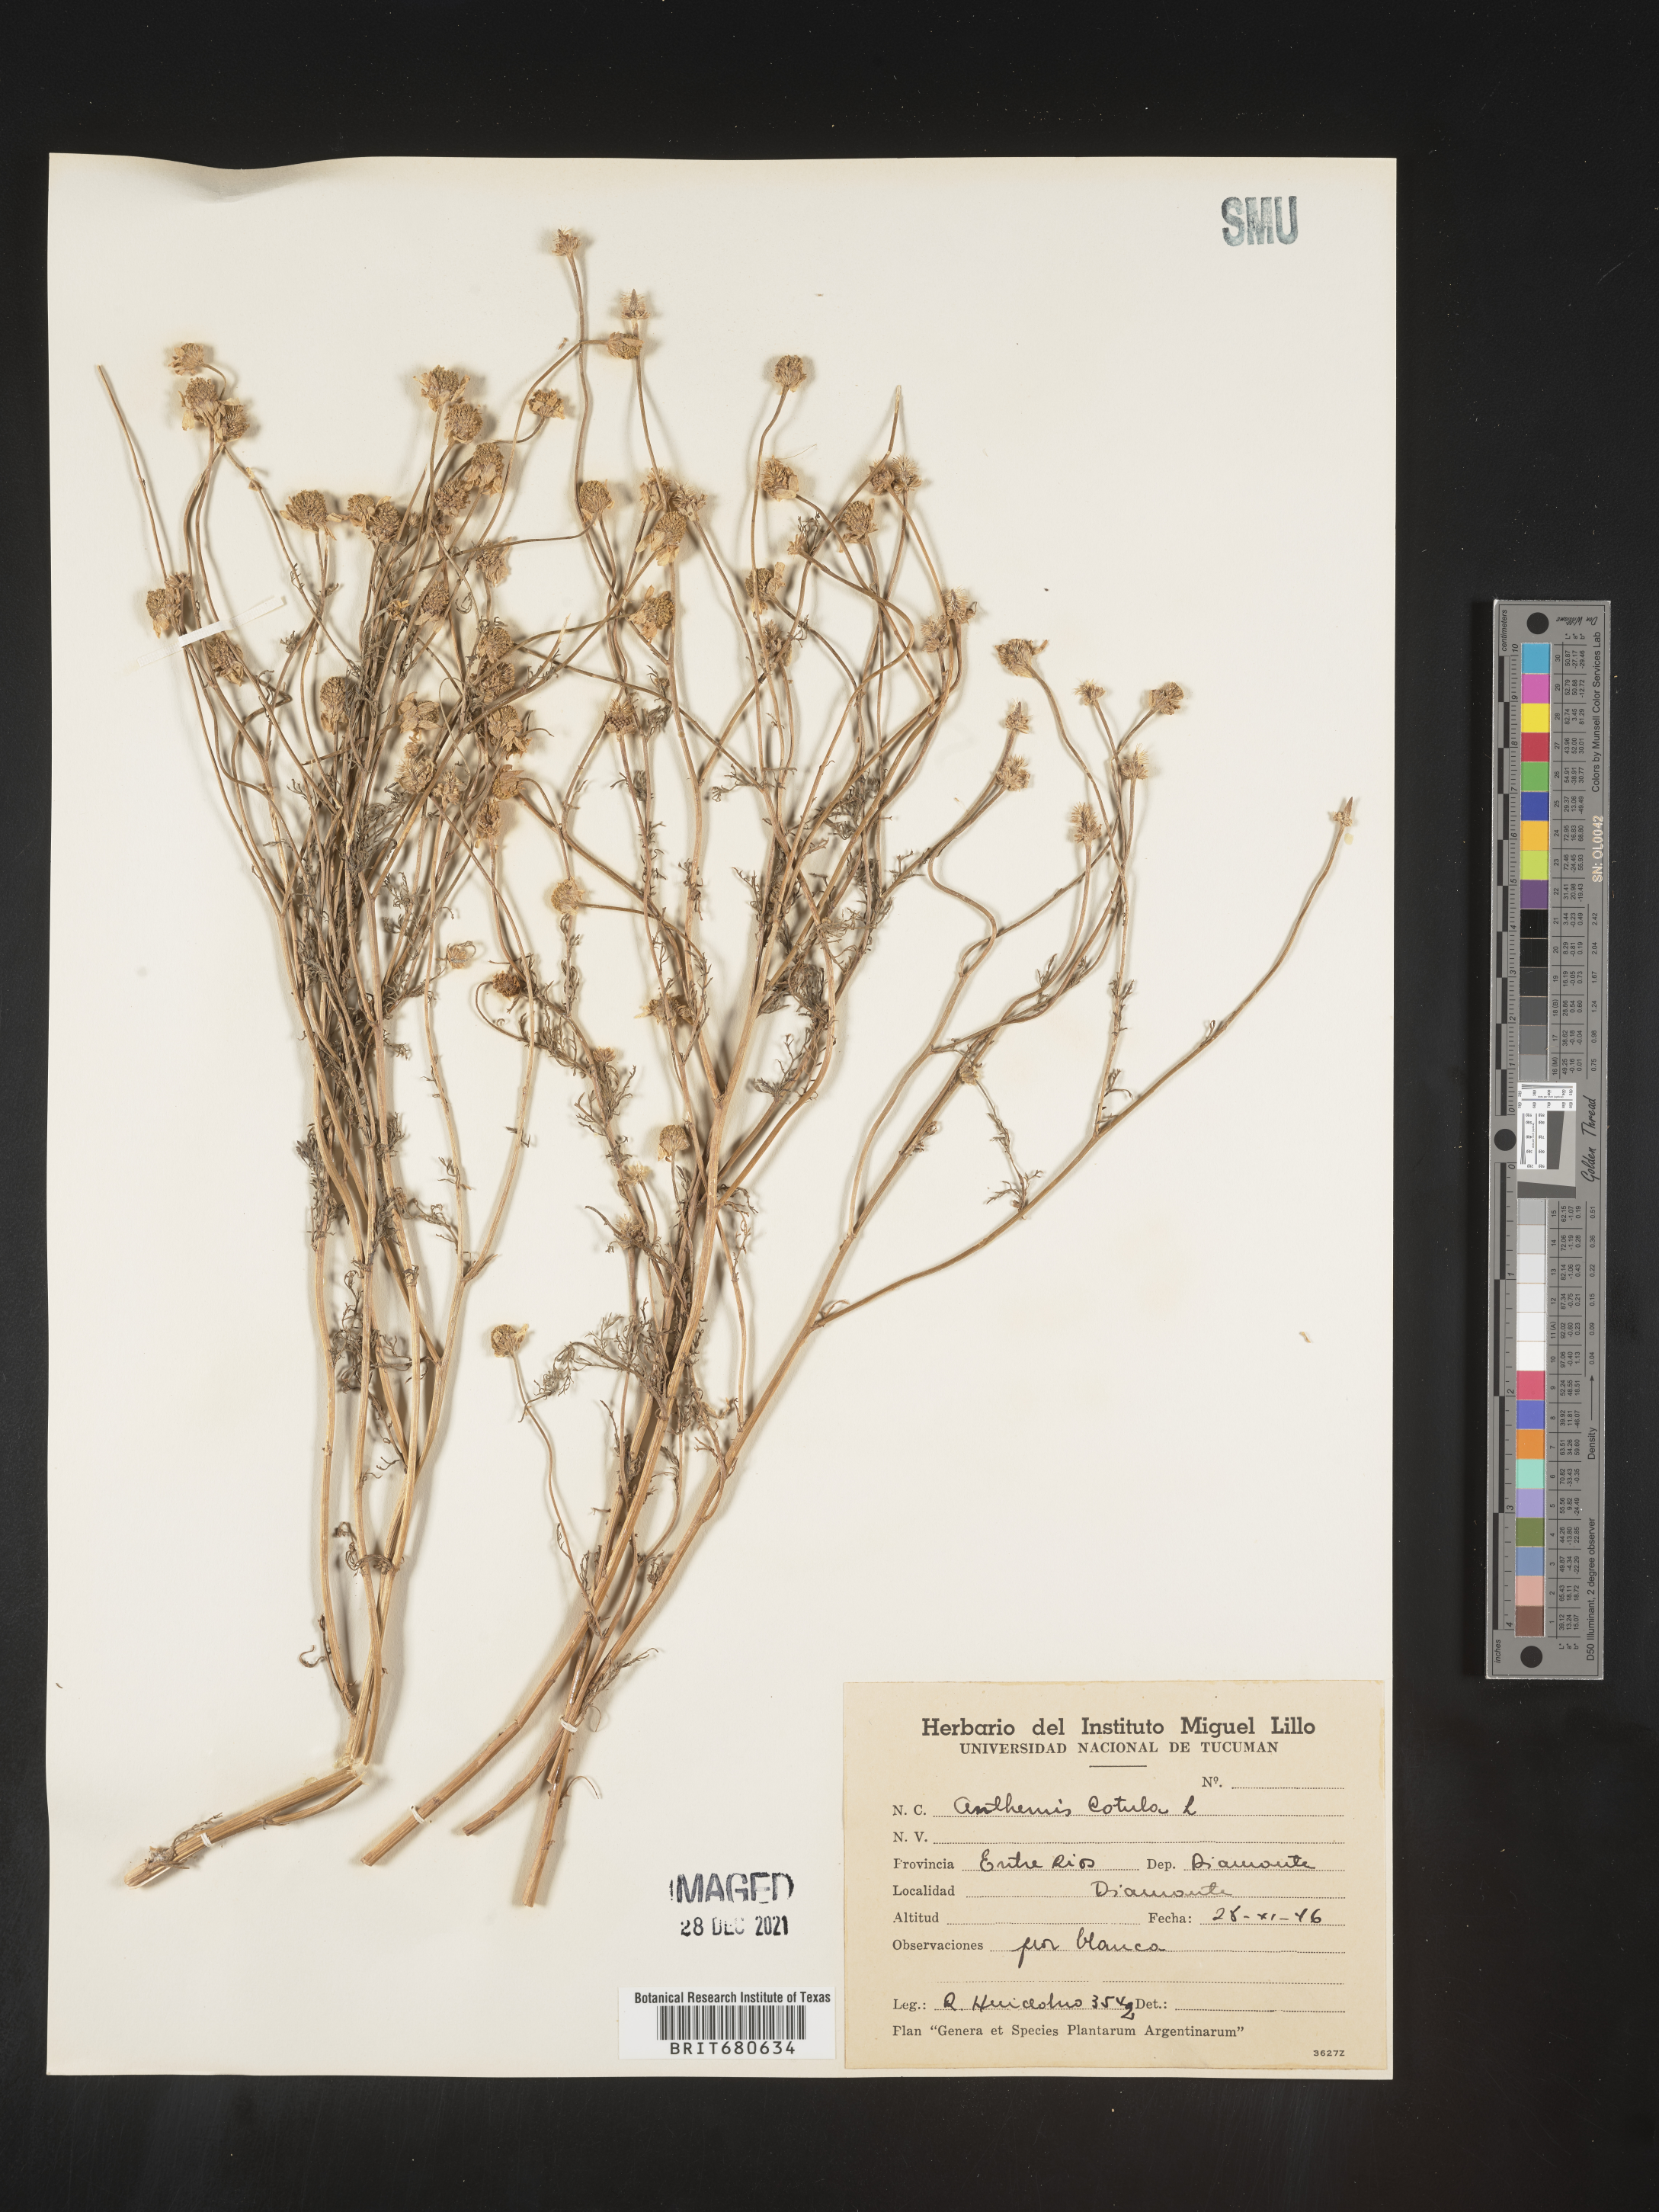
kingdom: Plantae
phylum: Tracheophyta
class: Magnoliopsida
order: Asterales
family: Asteraceae
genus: Anthemis
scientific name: Anthemis
